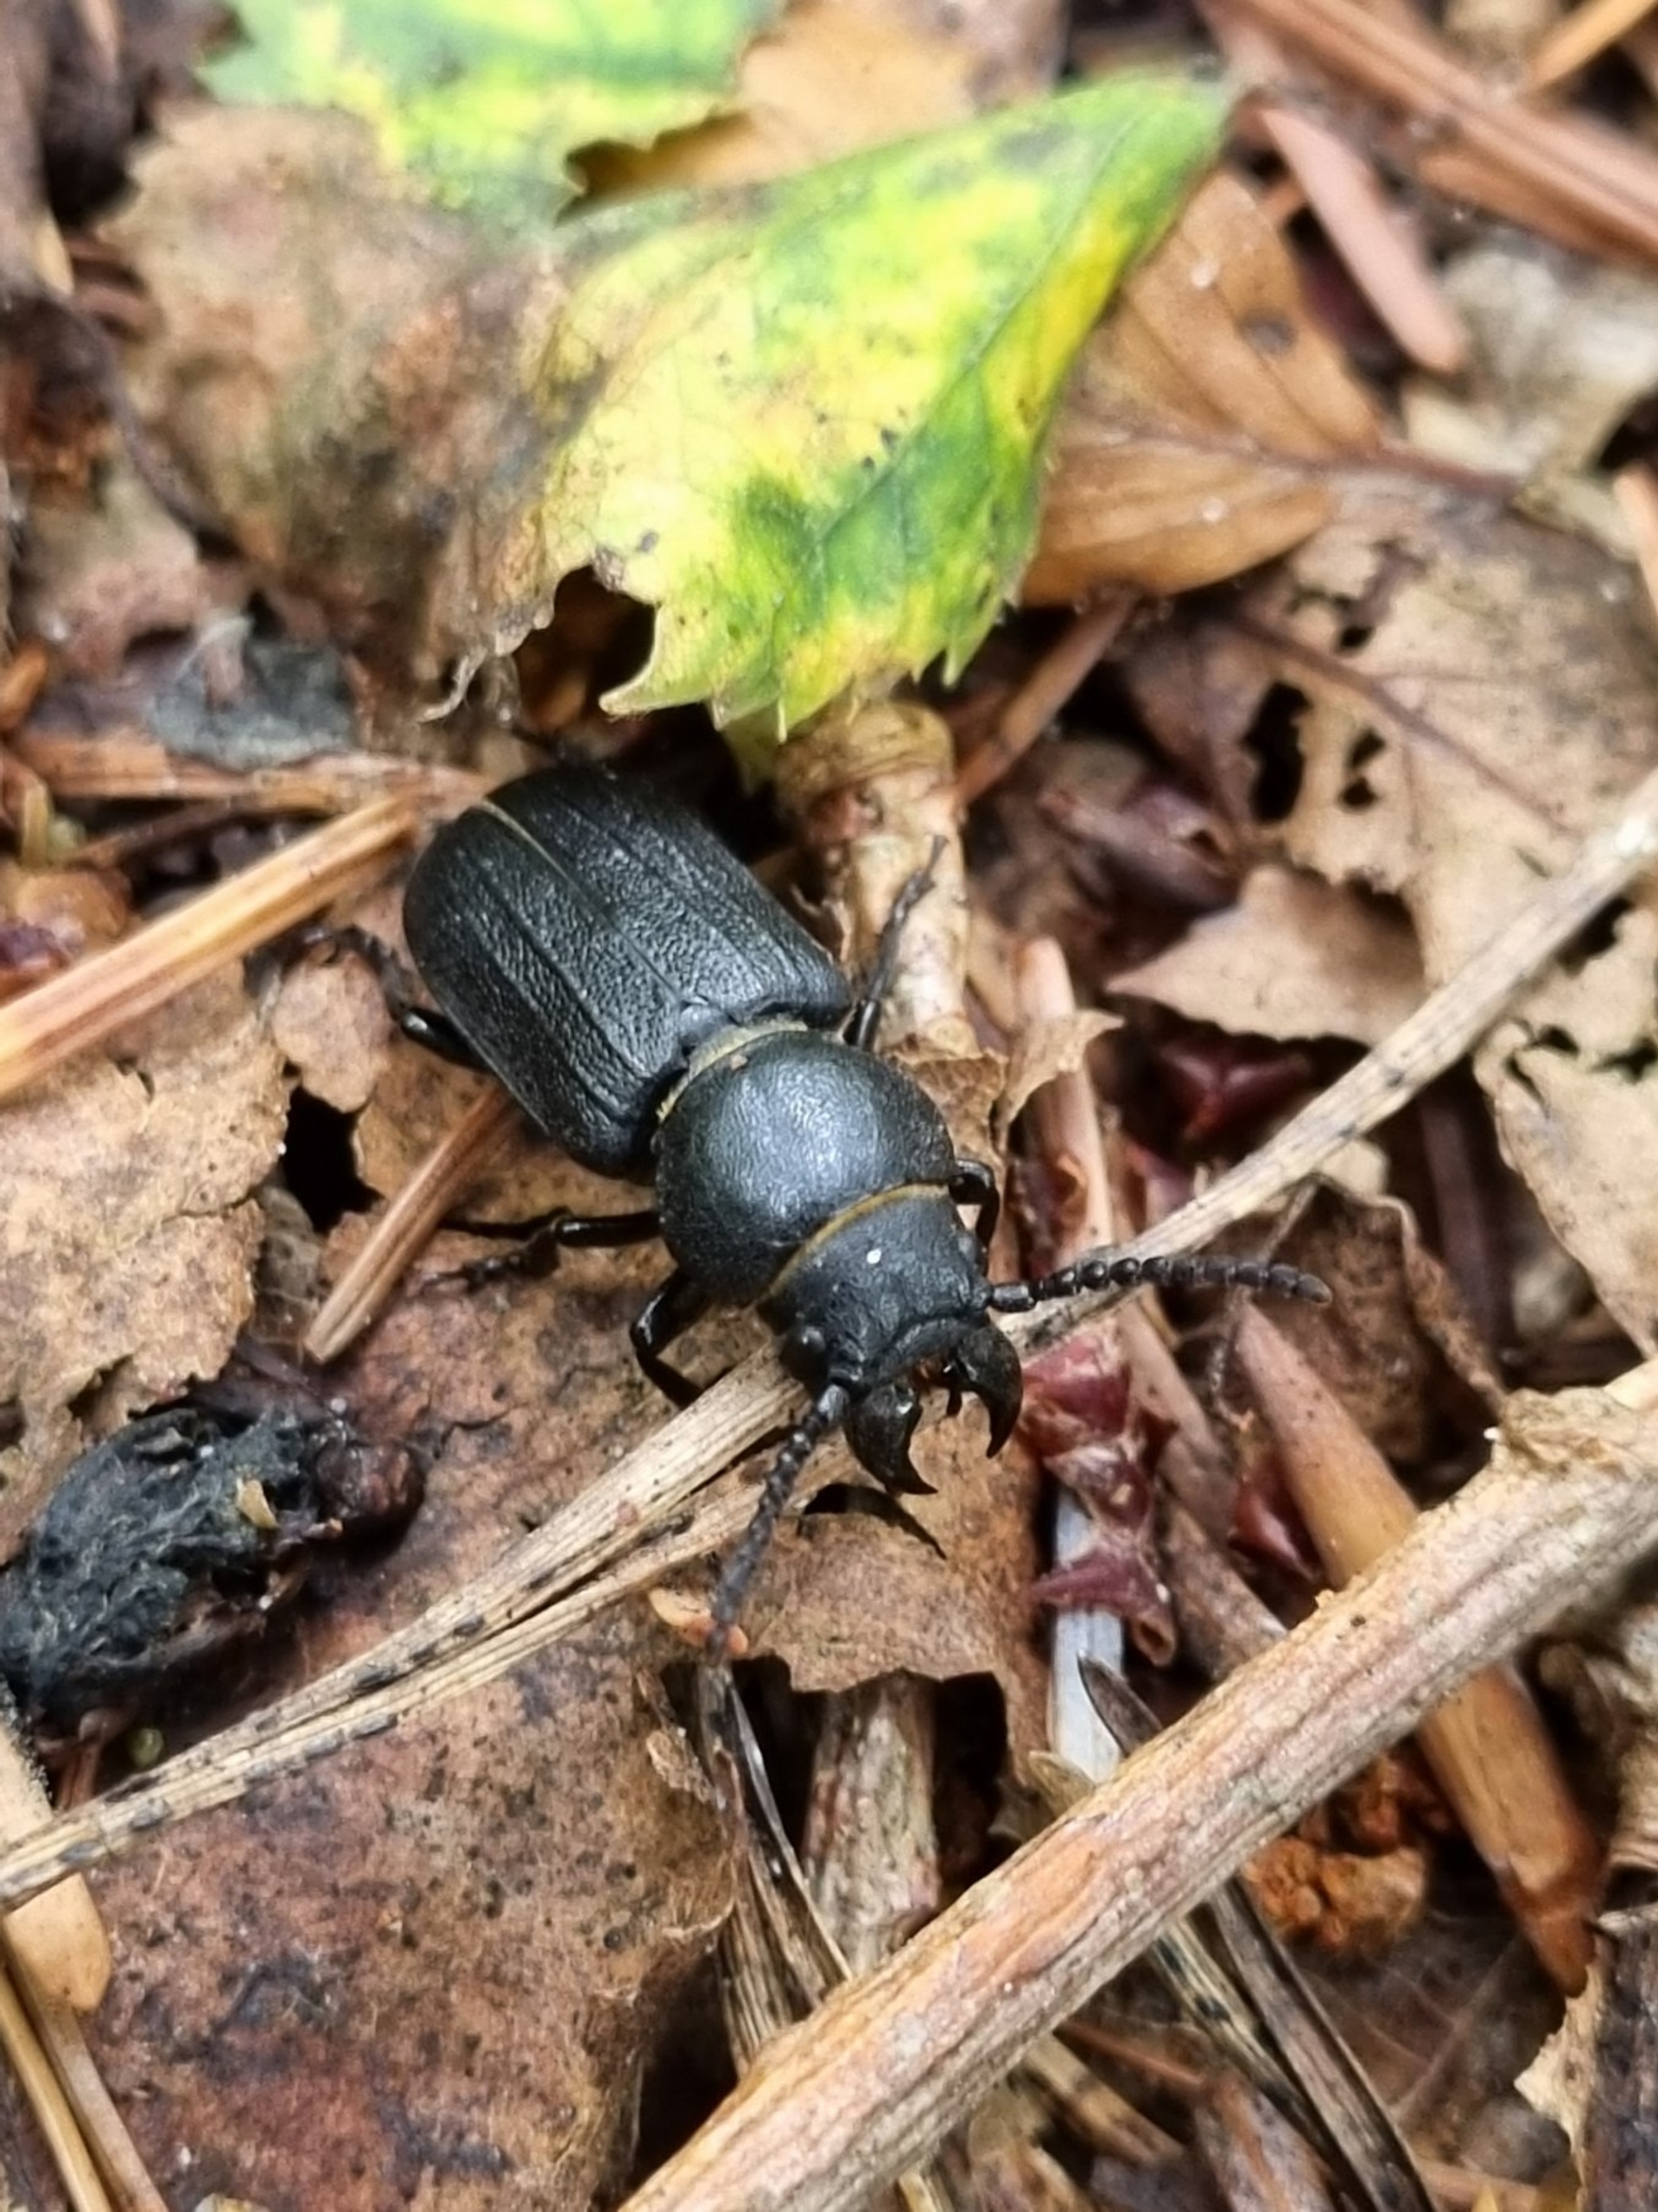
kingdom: Animalia
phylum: Arthropoda
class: Insecta
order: Coleoptera
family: Cerambycidae
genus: Spondylis
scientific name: Spondylis buprestoides
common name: Valsebuk
